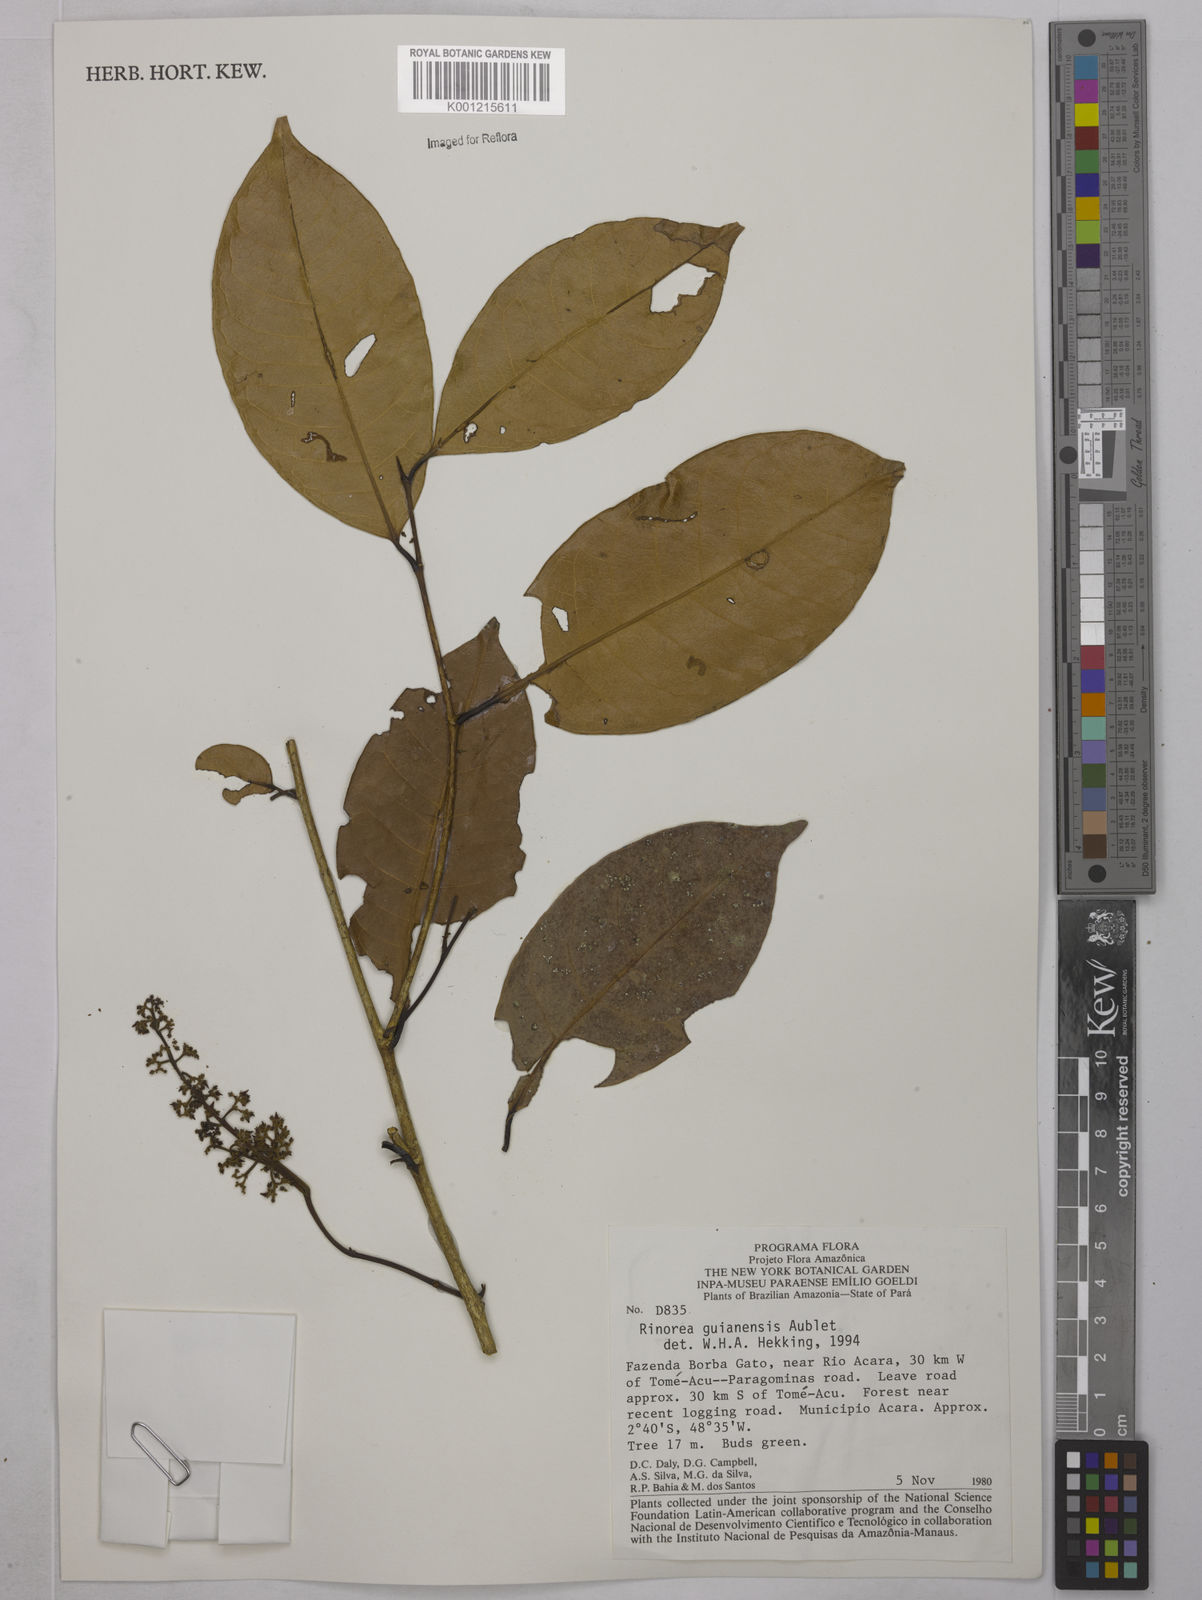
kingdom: Plantae
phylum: Tracheophyta
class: Magnoliopsida
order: Malpighiales
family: Violaceae
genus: Rinorea
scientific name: Rinorea guianensis
